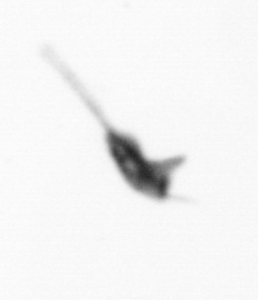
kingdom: Animalia
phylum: Arthropoda
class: Copepoda
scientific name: Copepoda
